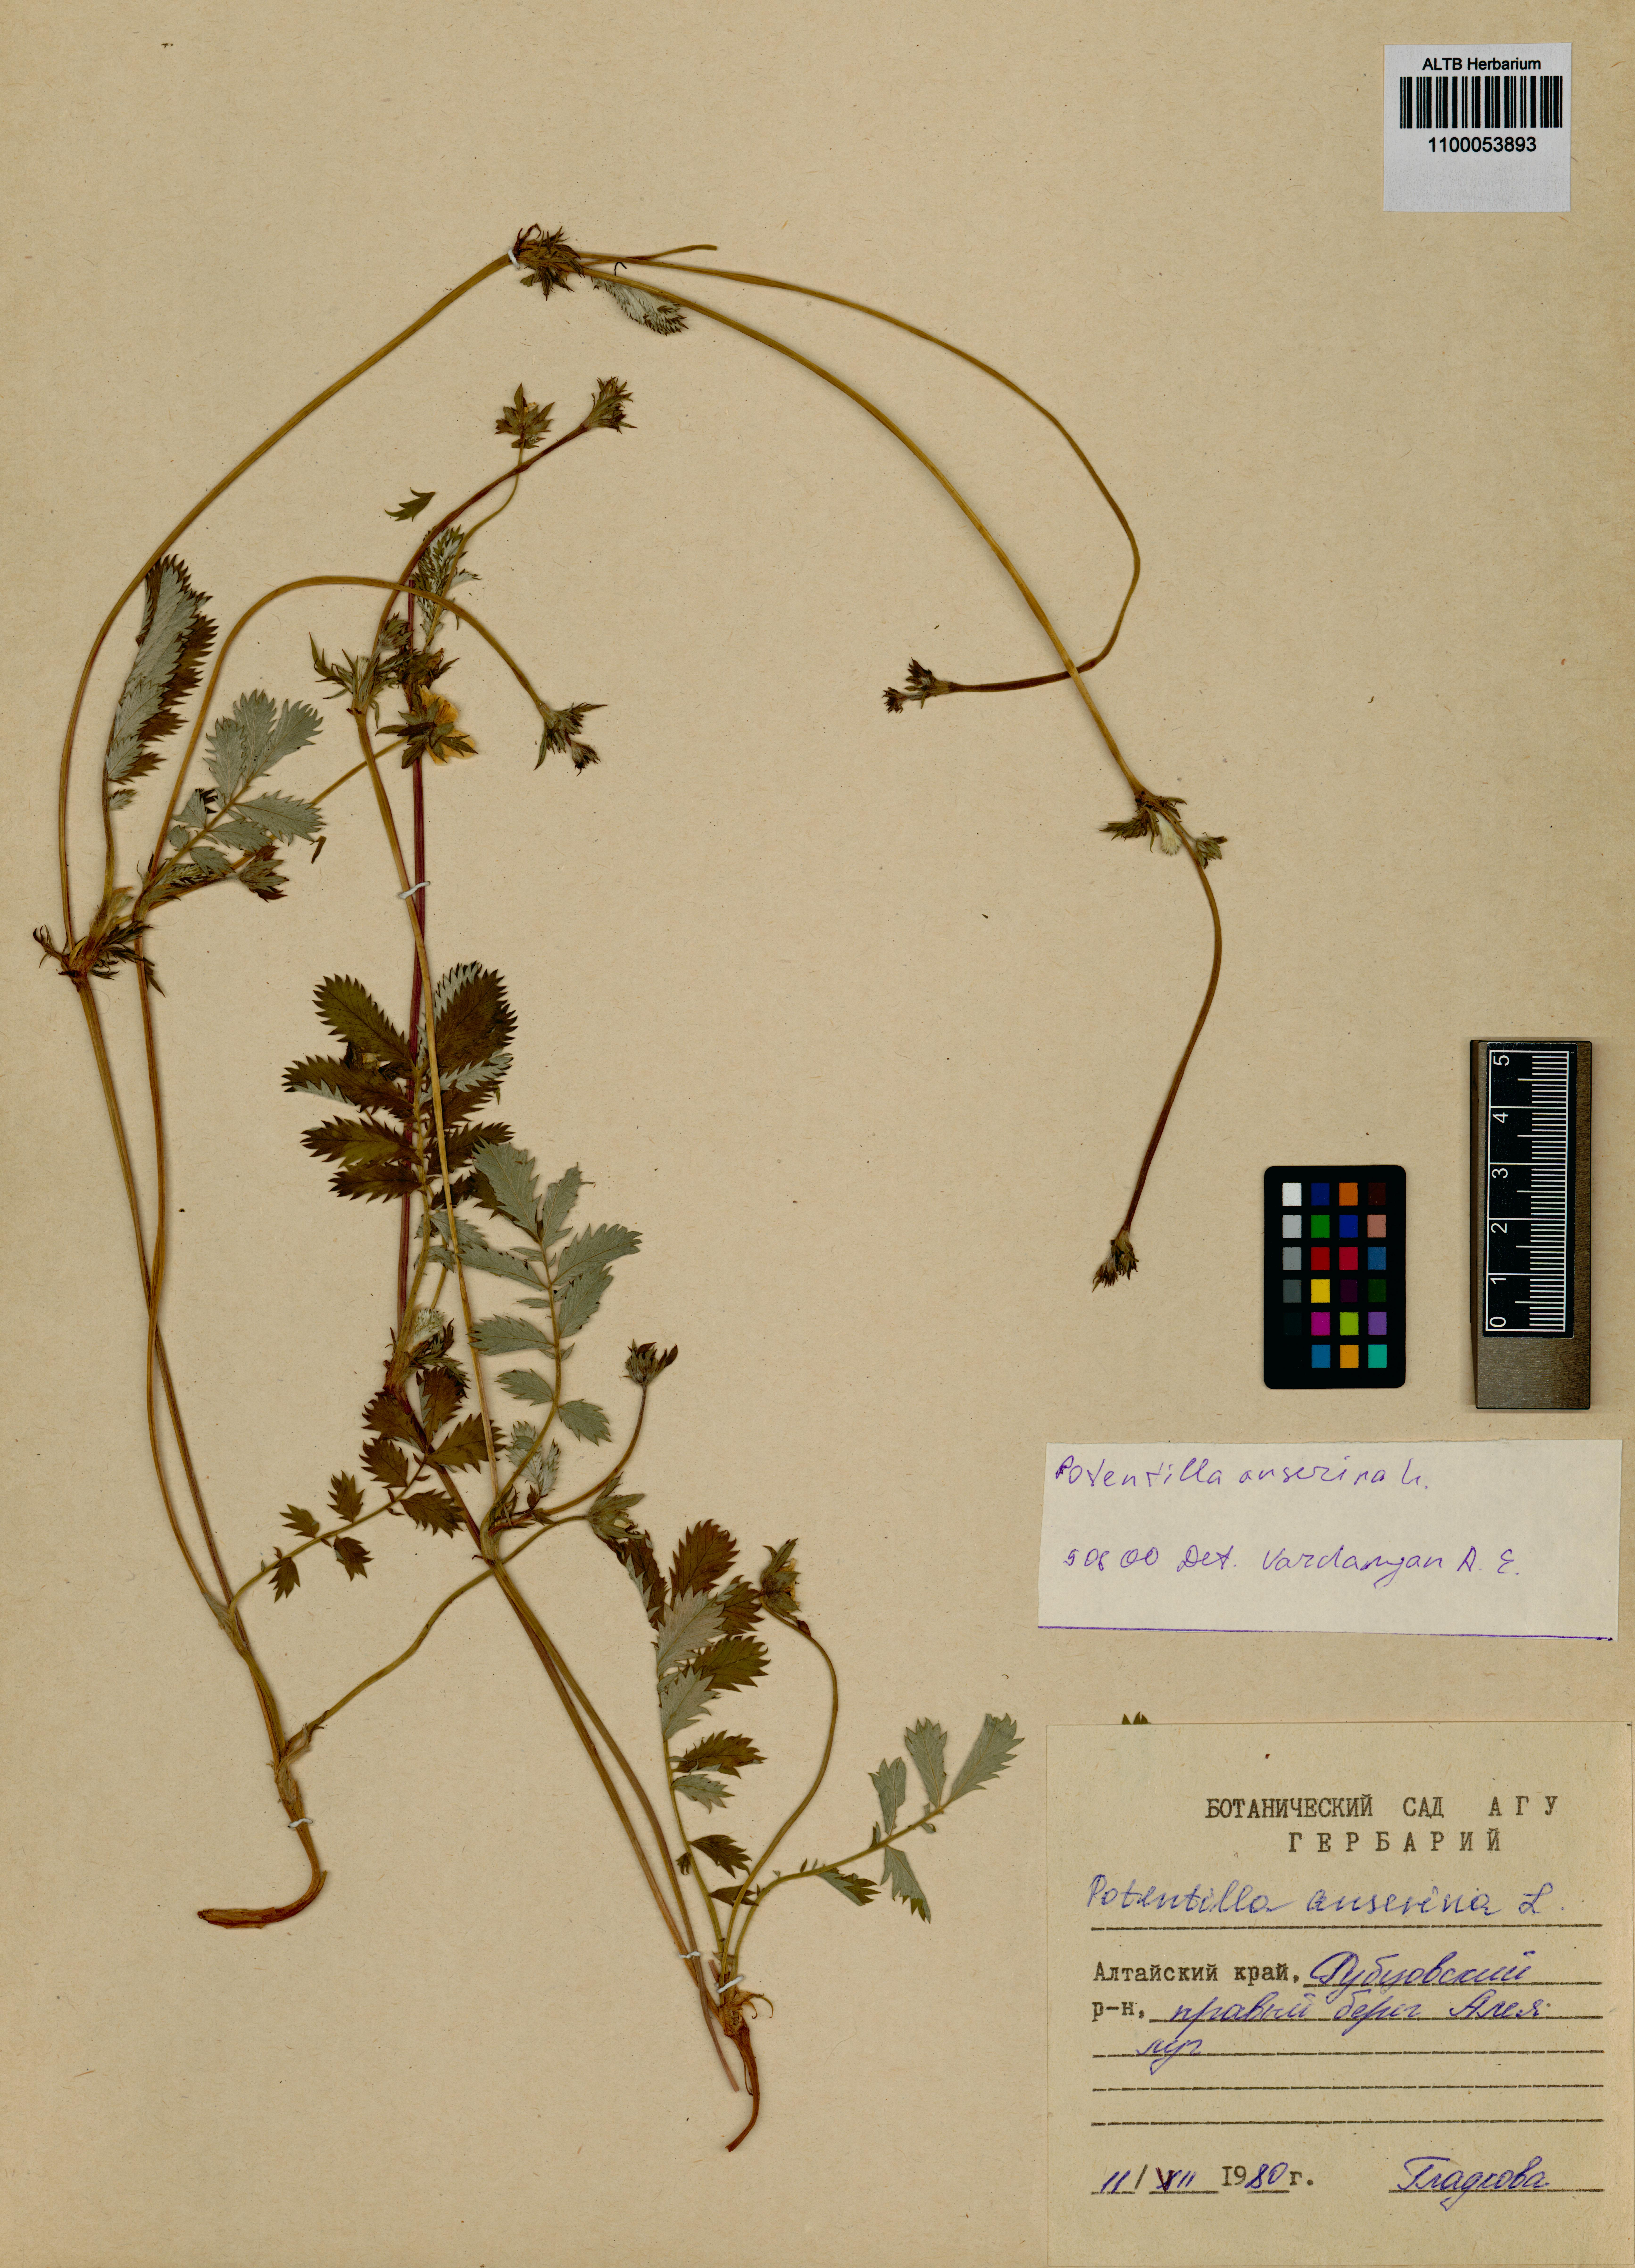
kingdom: Plantae
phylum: Tracheophyta
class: Magnoliopsida
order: Rosales
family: Rosaceae
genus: Argentina
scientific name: Argentina anserina
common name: Common silverweed
